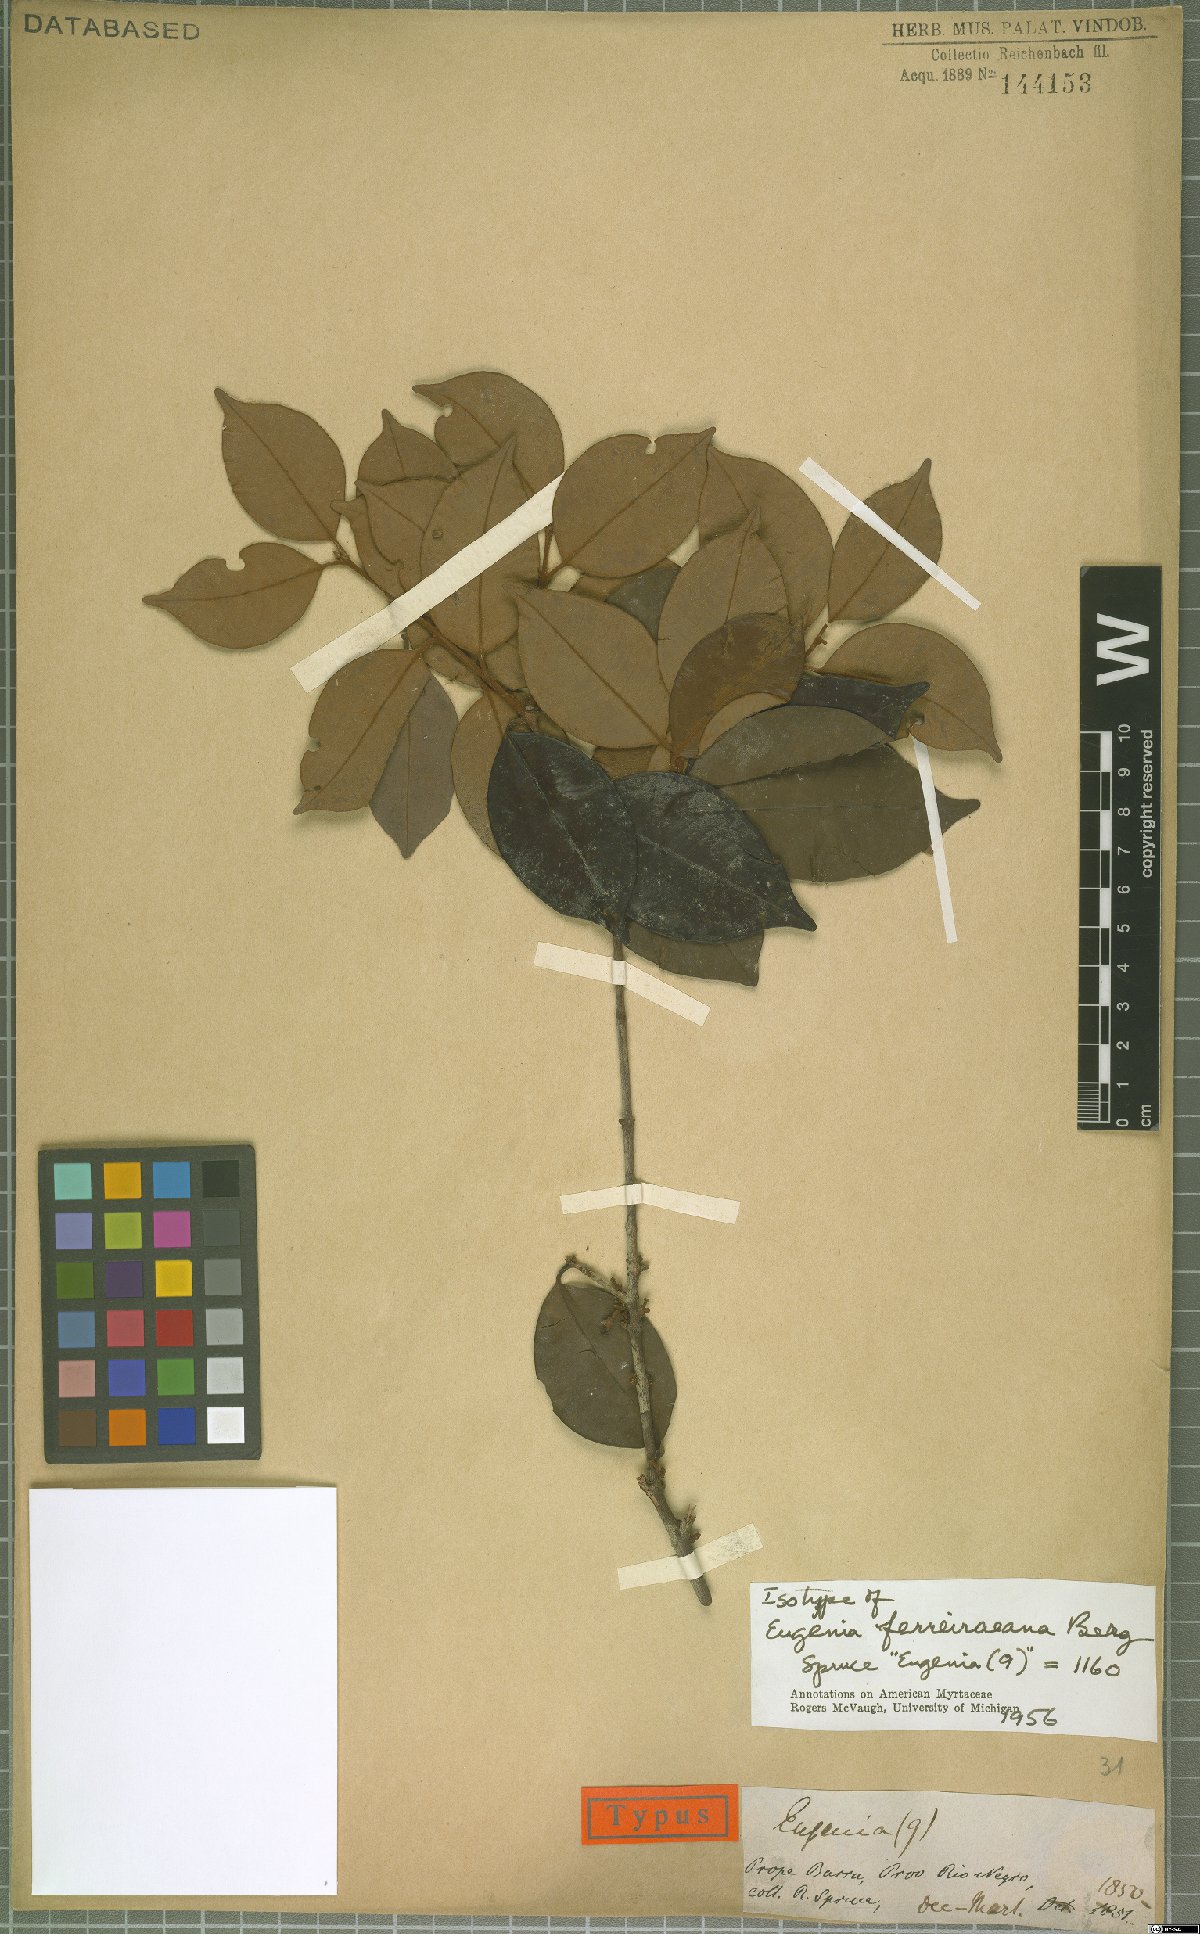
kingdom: Plantae
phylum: Tracheophyta
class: Magnoliopsida
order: Myrtales
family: Myrtaceae
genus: Eugenia
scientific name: Eugenia ferreiraeana
